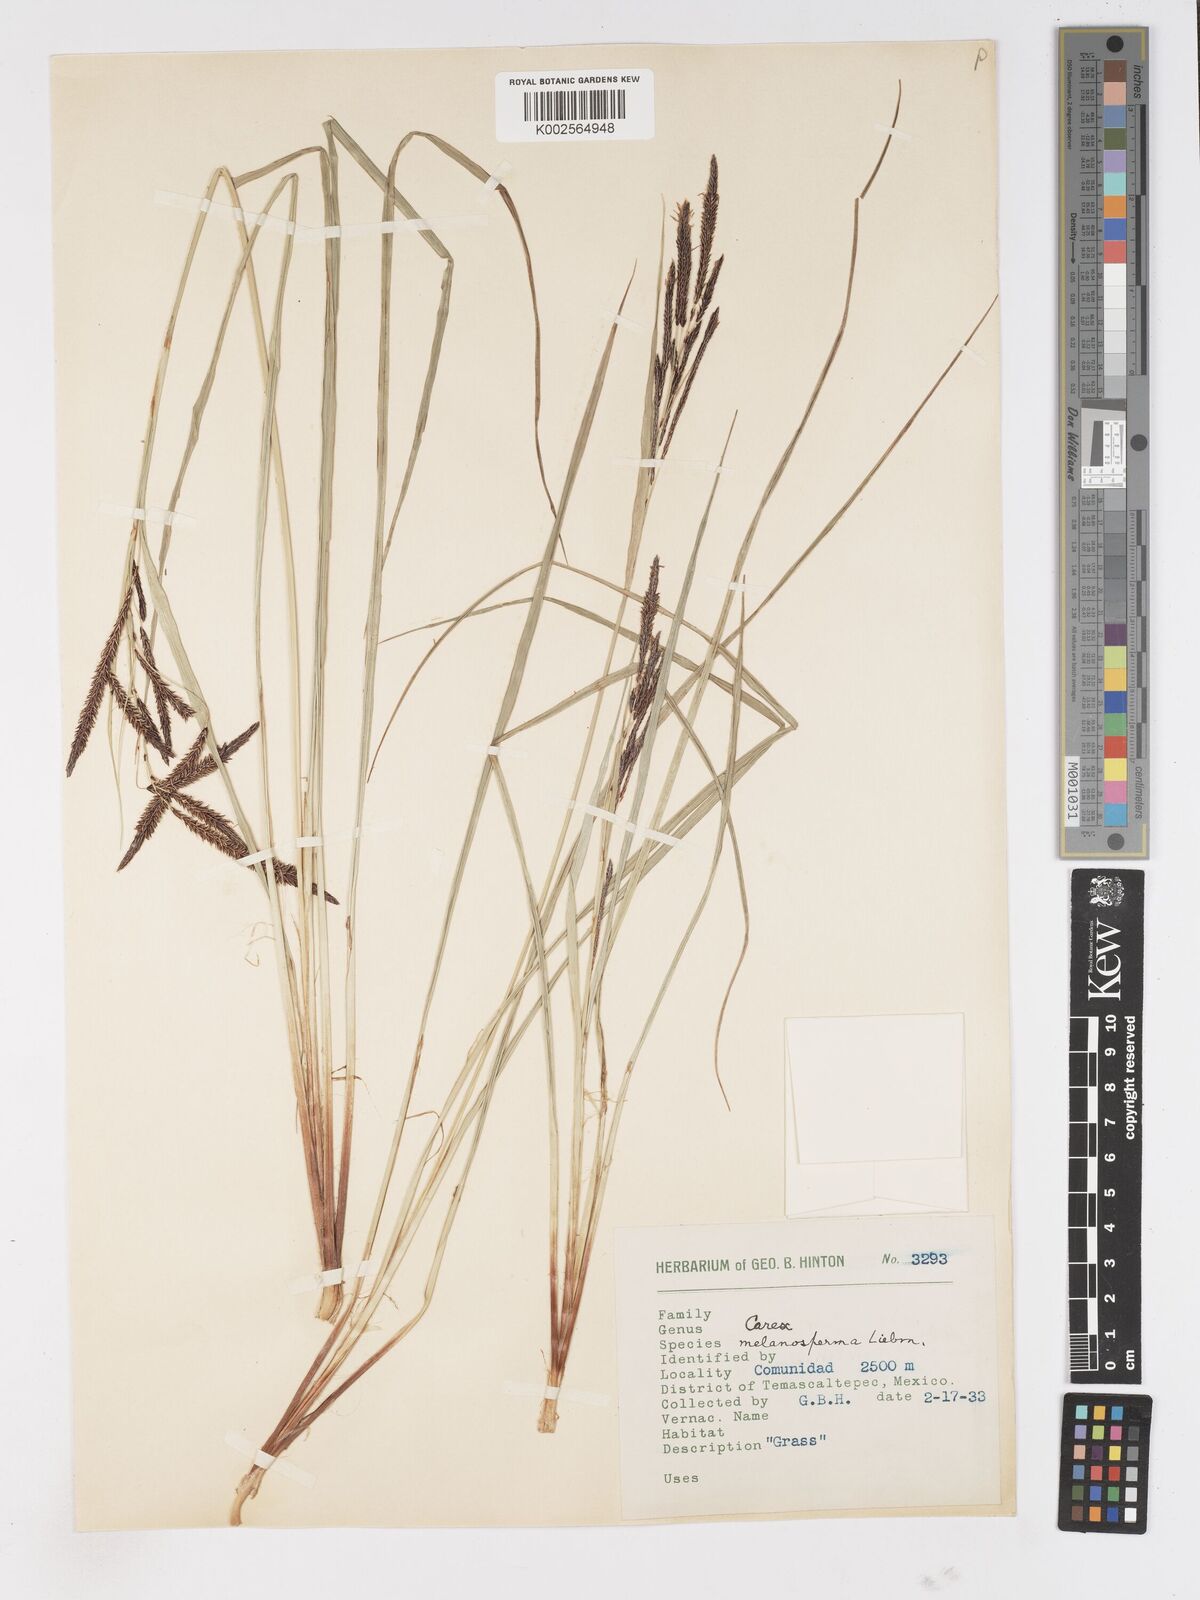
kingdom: Plantae
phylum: Tracheophyta
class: Liliopsida
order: Poales
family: Cyperaceae
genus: Carex
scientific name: Carex melanosperma
